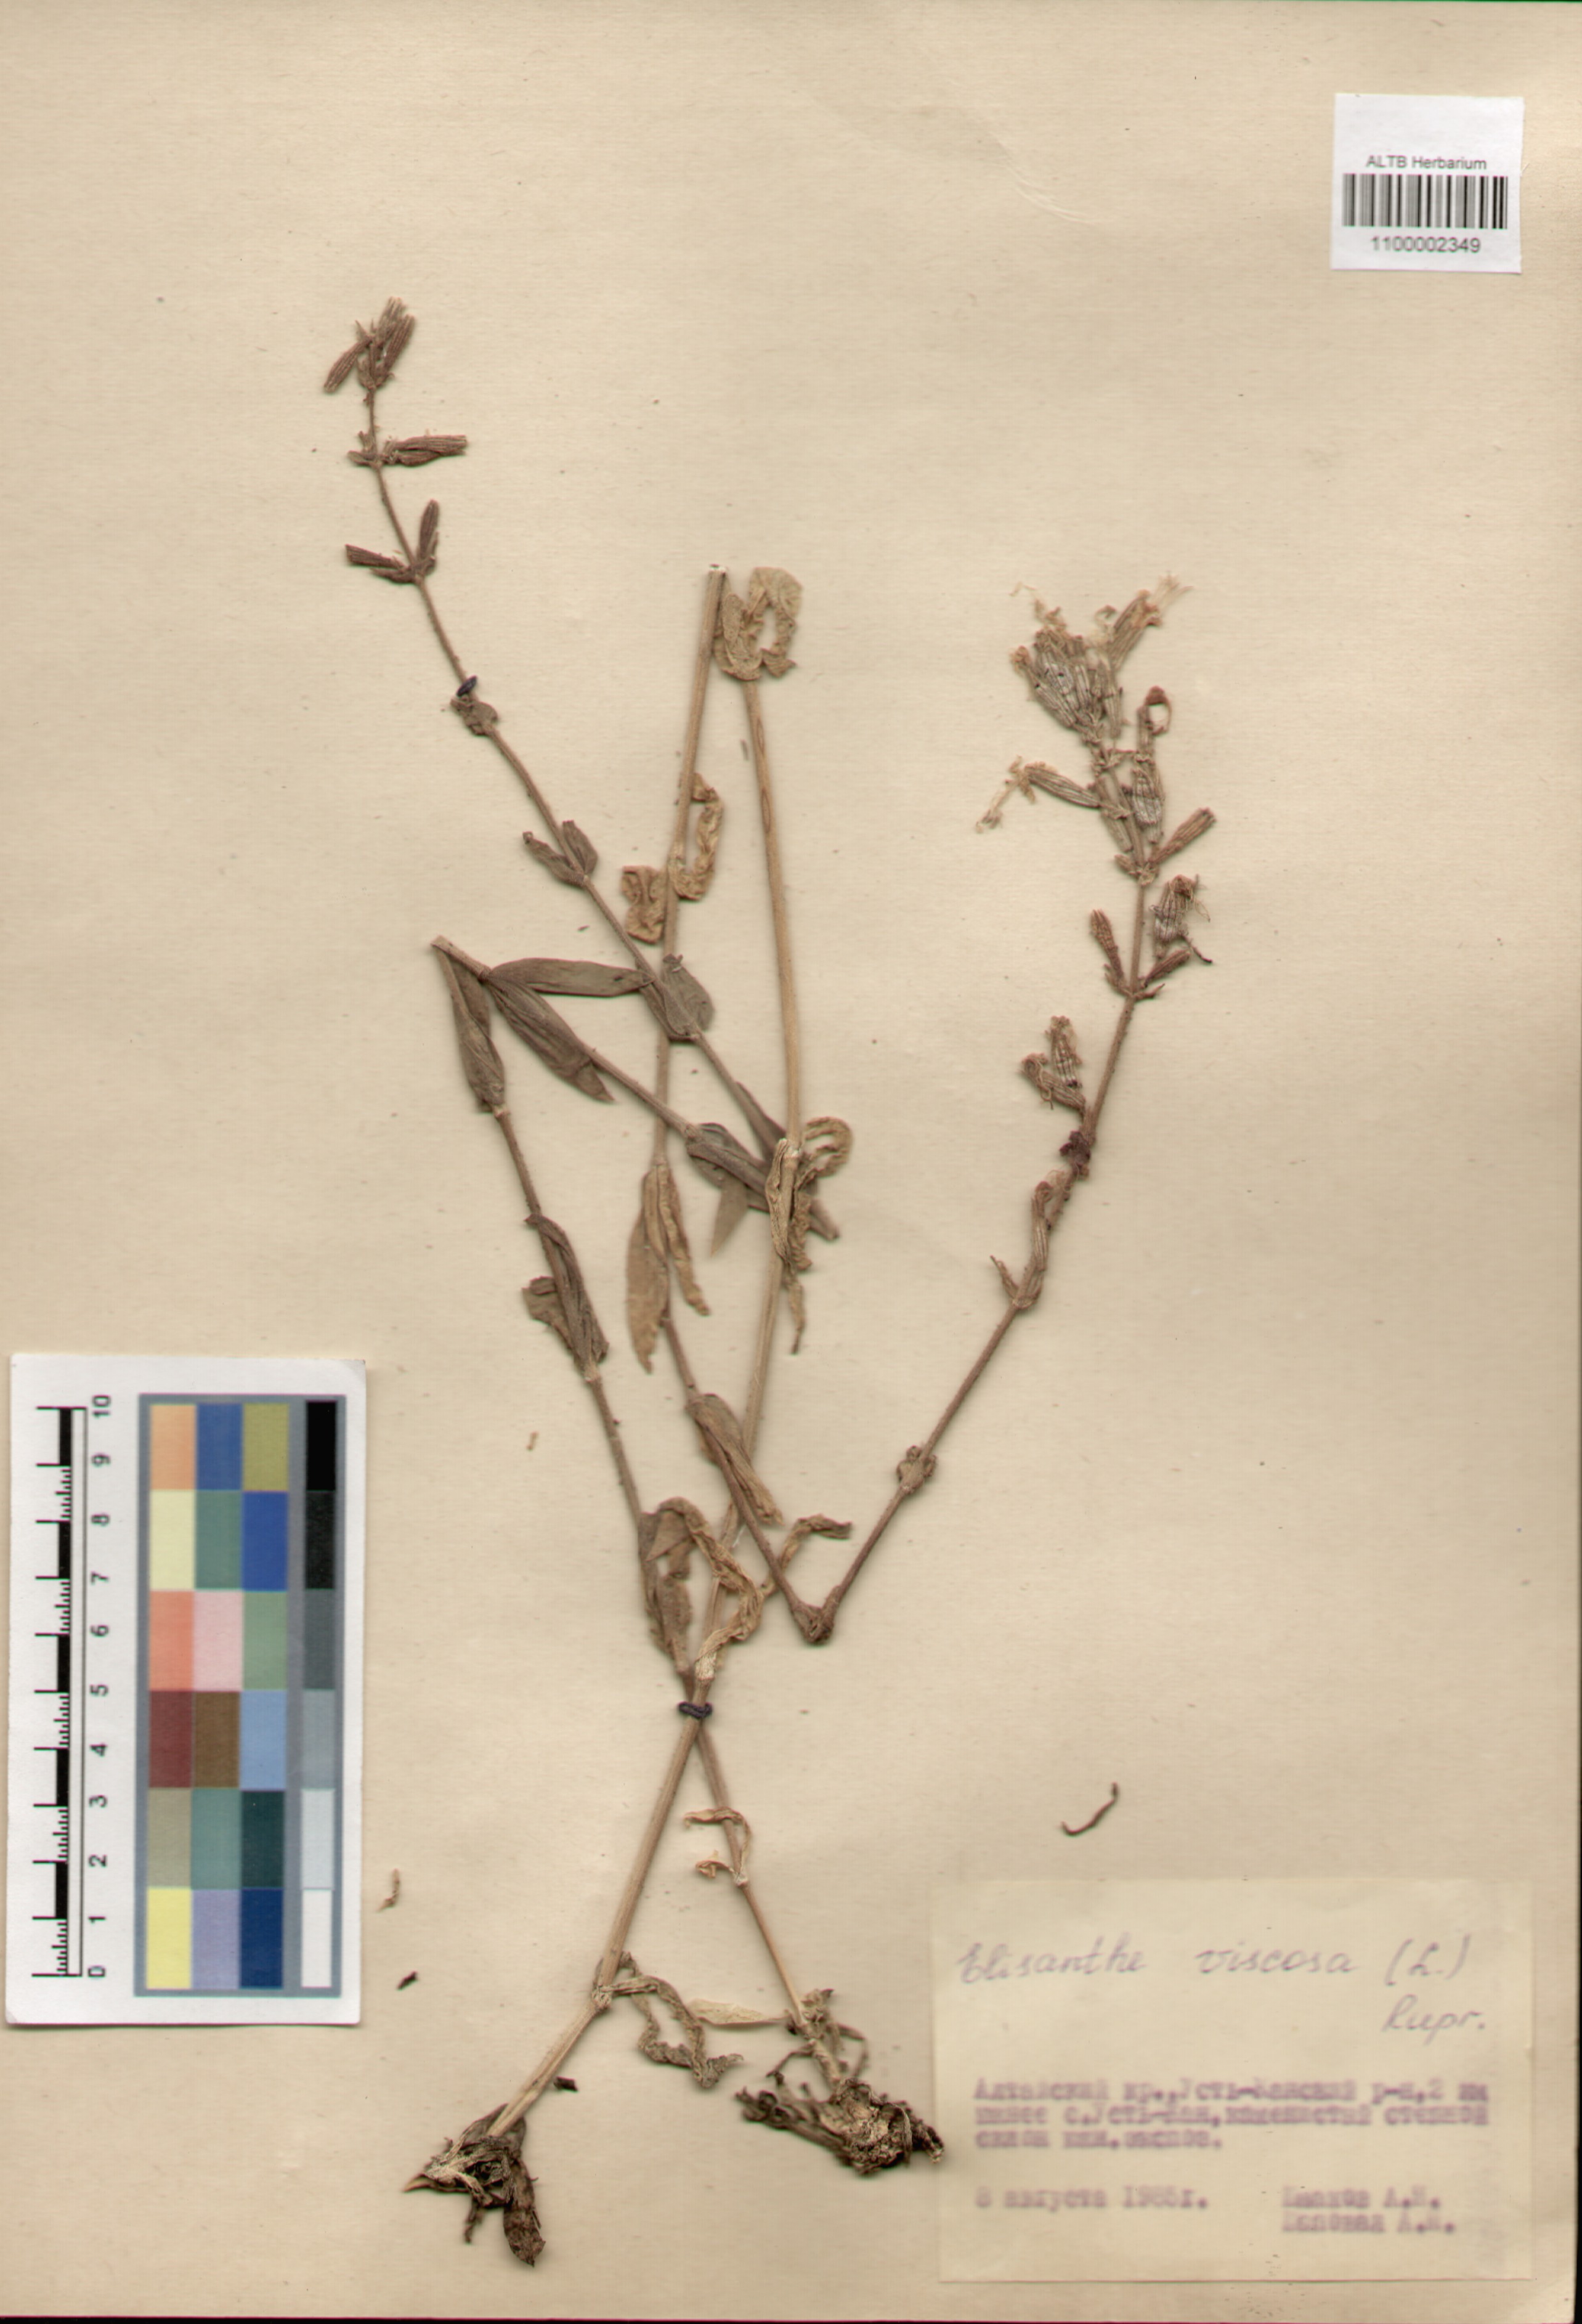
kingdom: Plantae
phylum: Tracheophyta
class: Magnoliopsida
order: Caryophyllales
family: Caryophyllaceae
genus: Silene
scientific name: Silene viscosa
